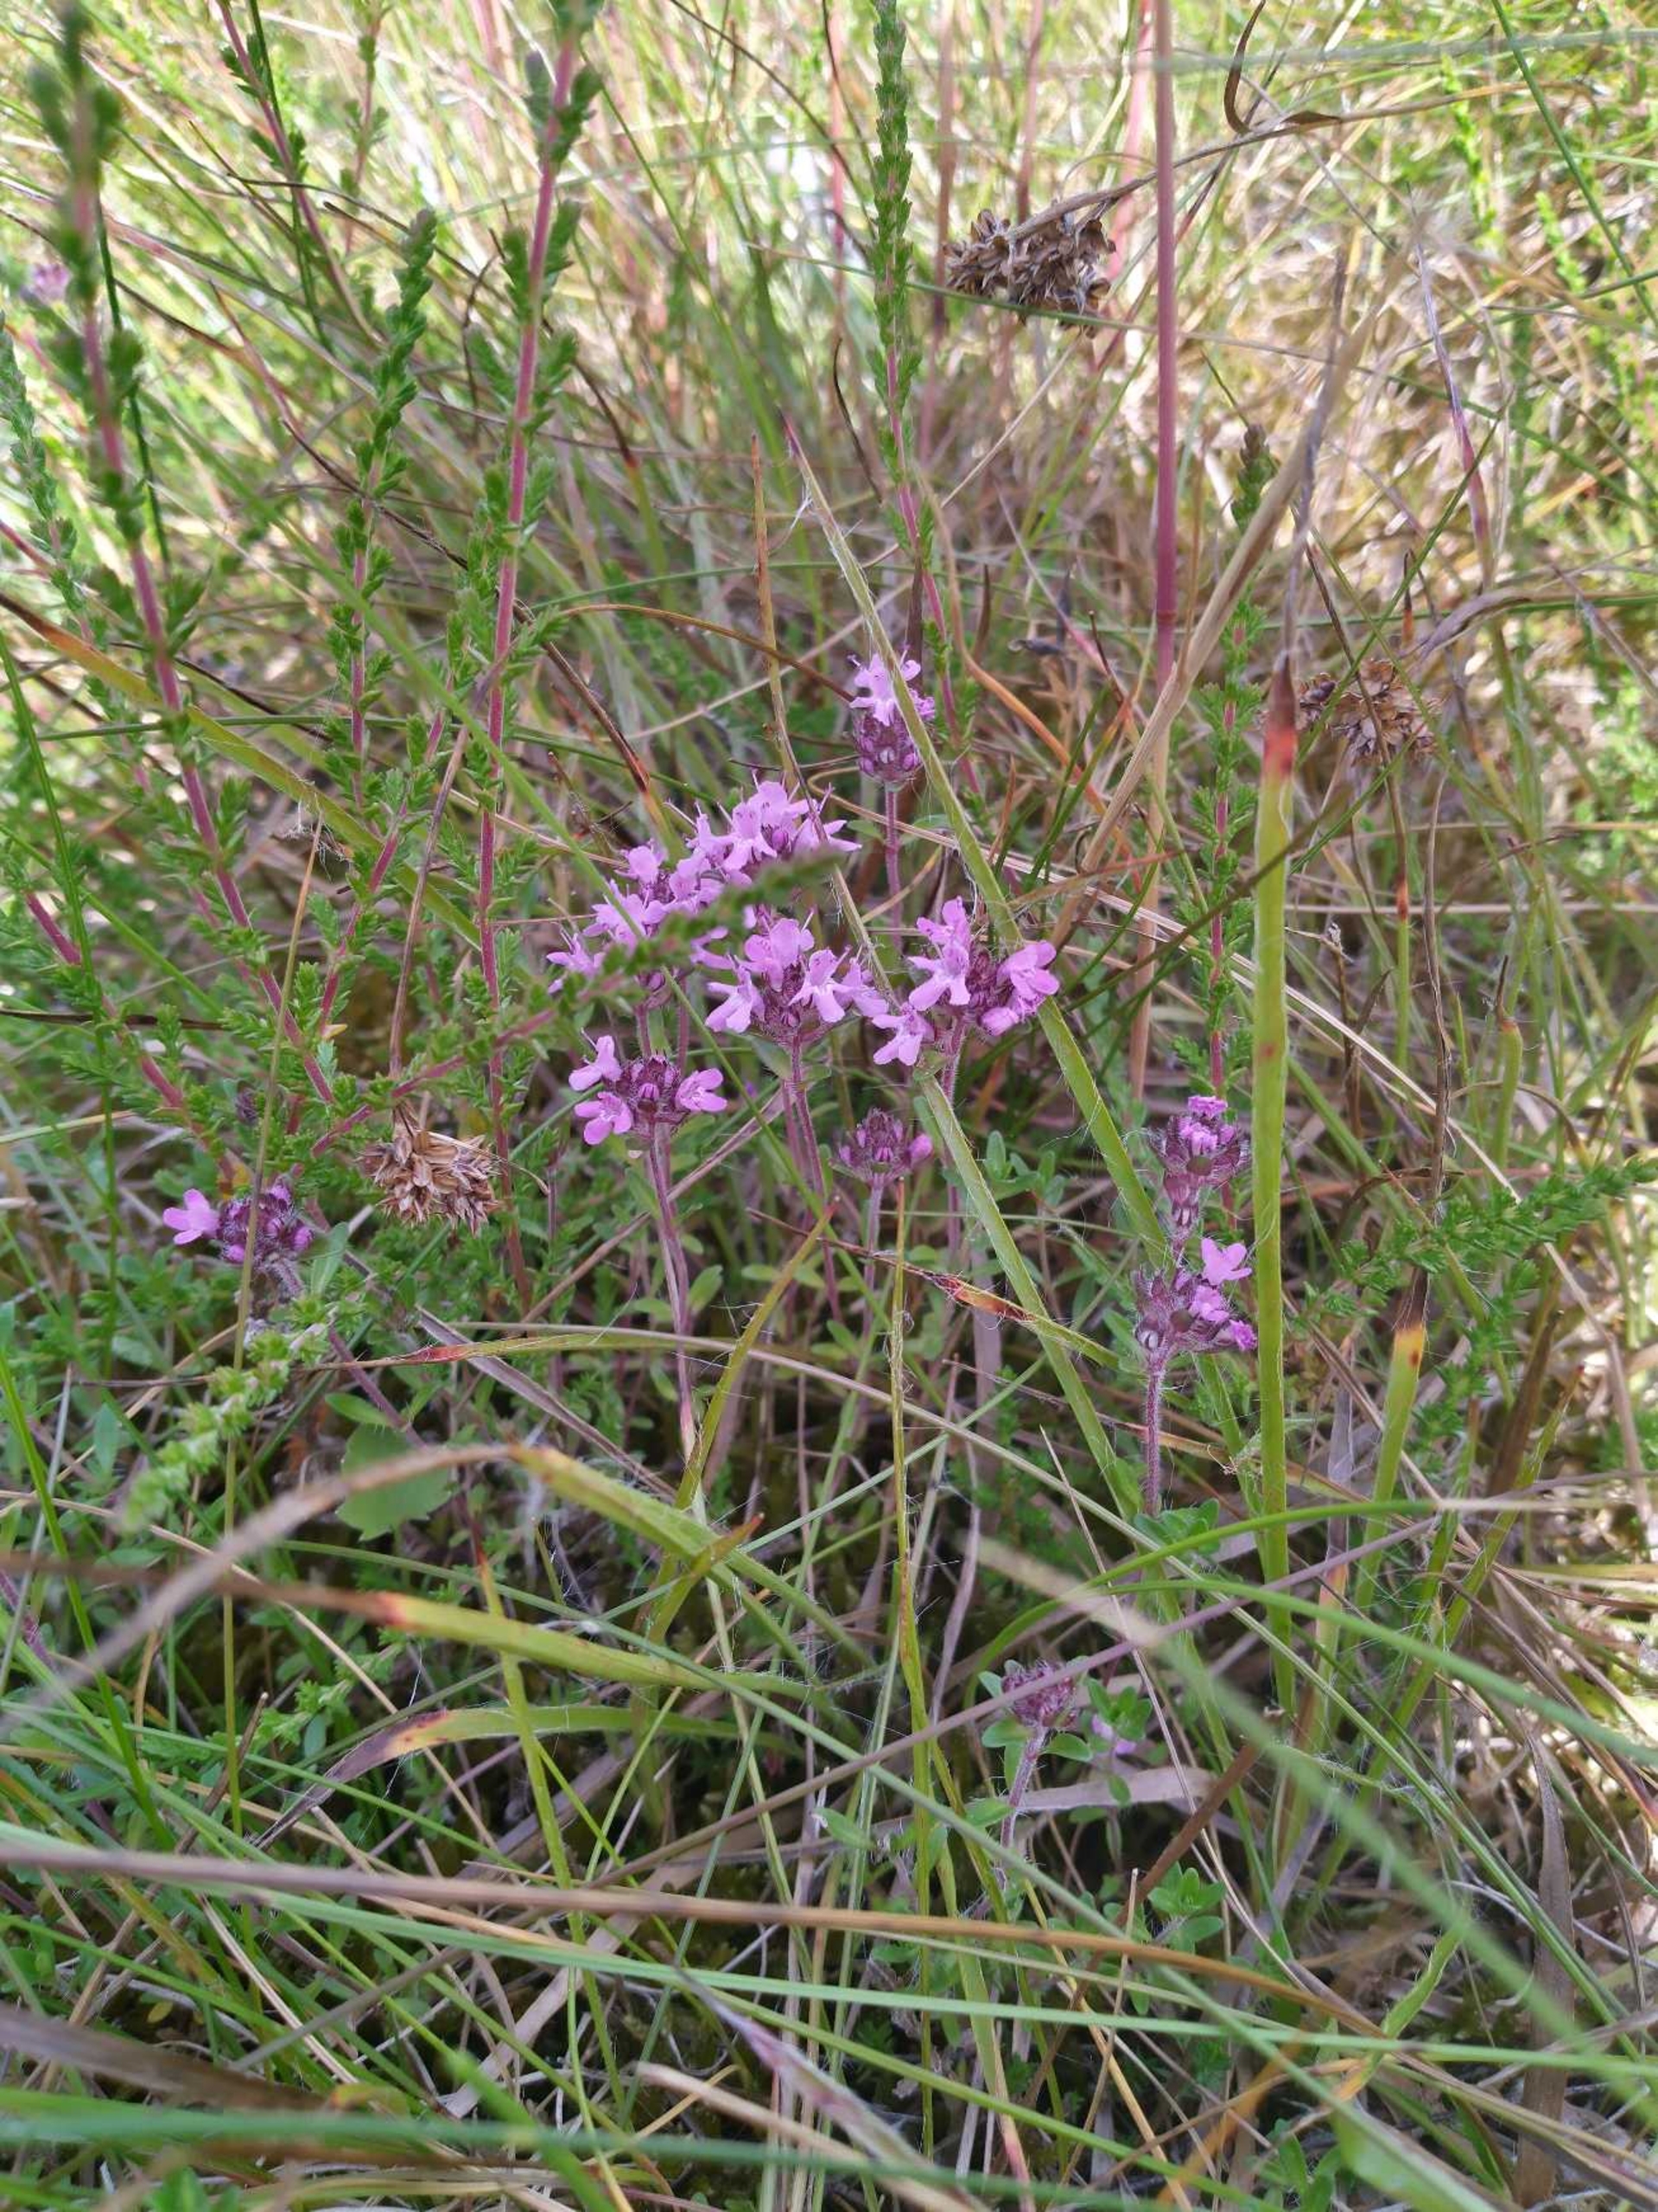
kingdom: Plantae
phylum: Tracheophyta
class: Magnoliopsida
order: Lamiales
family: Lamiaceae
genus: Thymus
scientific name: Thymus serpyllum
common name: Smalbladet timian
